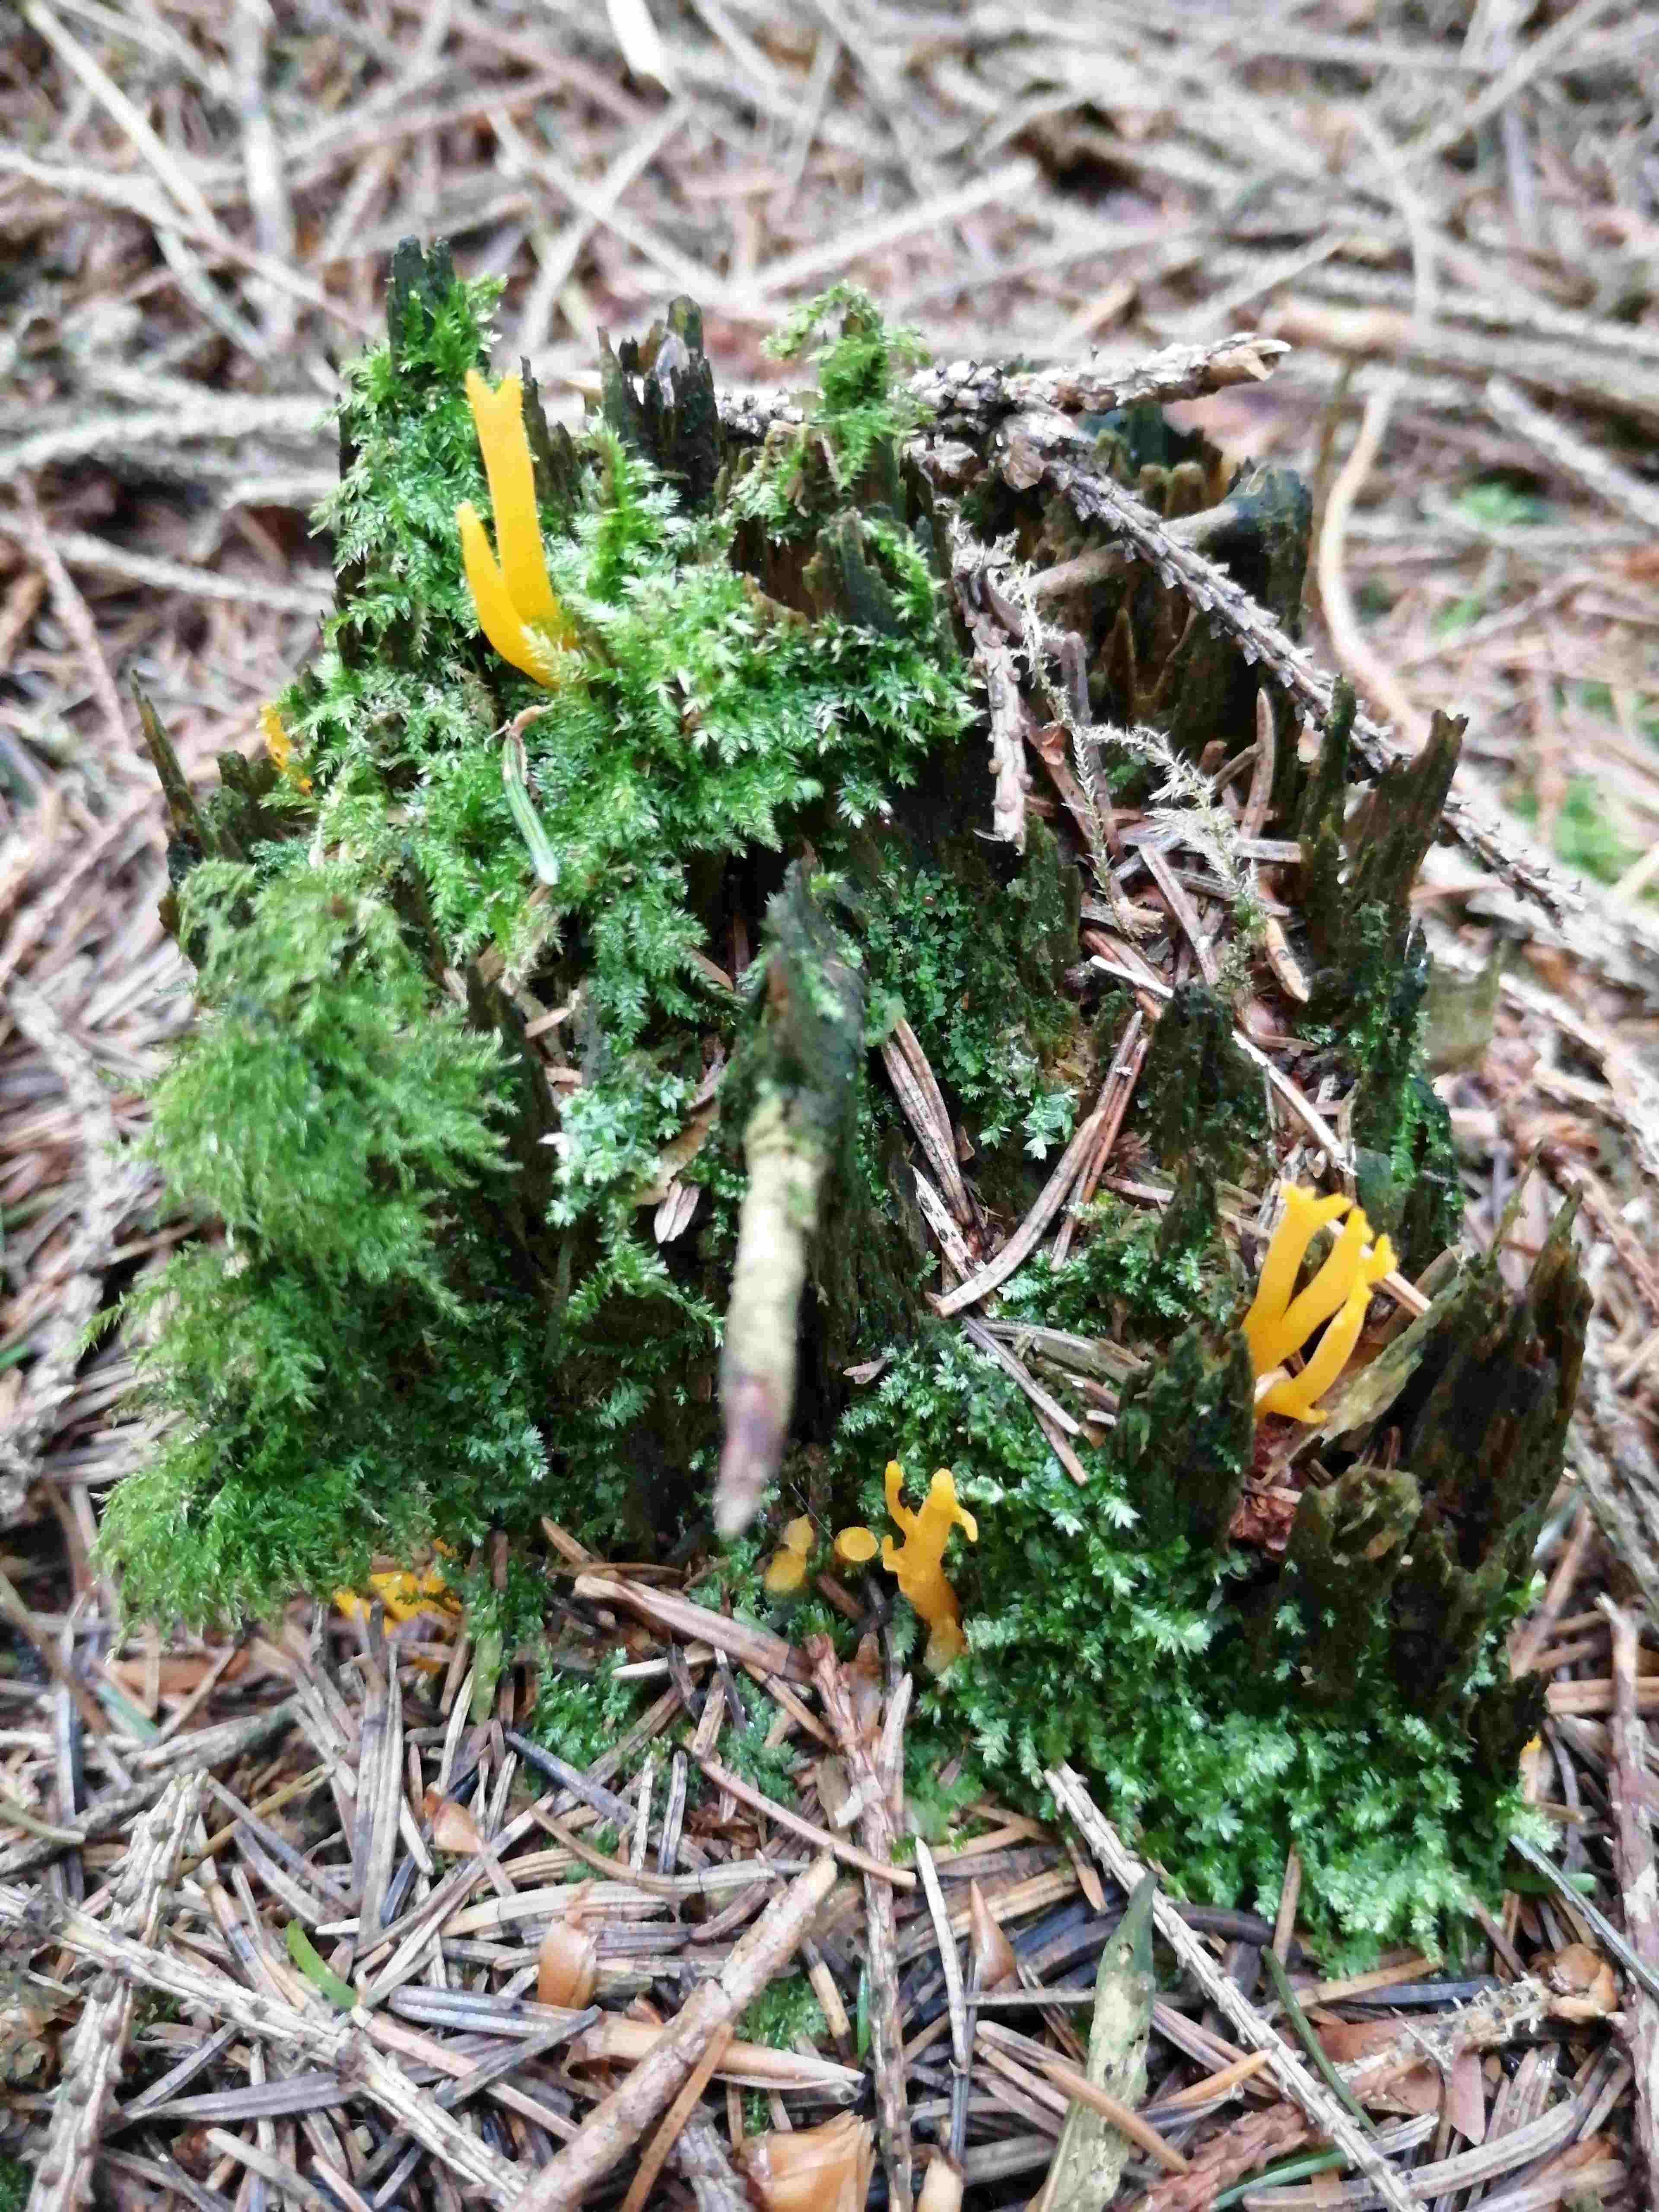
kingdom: Fungi
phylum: Basidiomycota
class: Dacrymycetes
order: Dacrymycetales
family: Dacrymycetaceae
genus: Calocera
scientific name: Calocera viscosa
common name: almindelig guldgaffel
